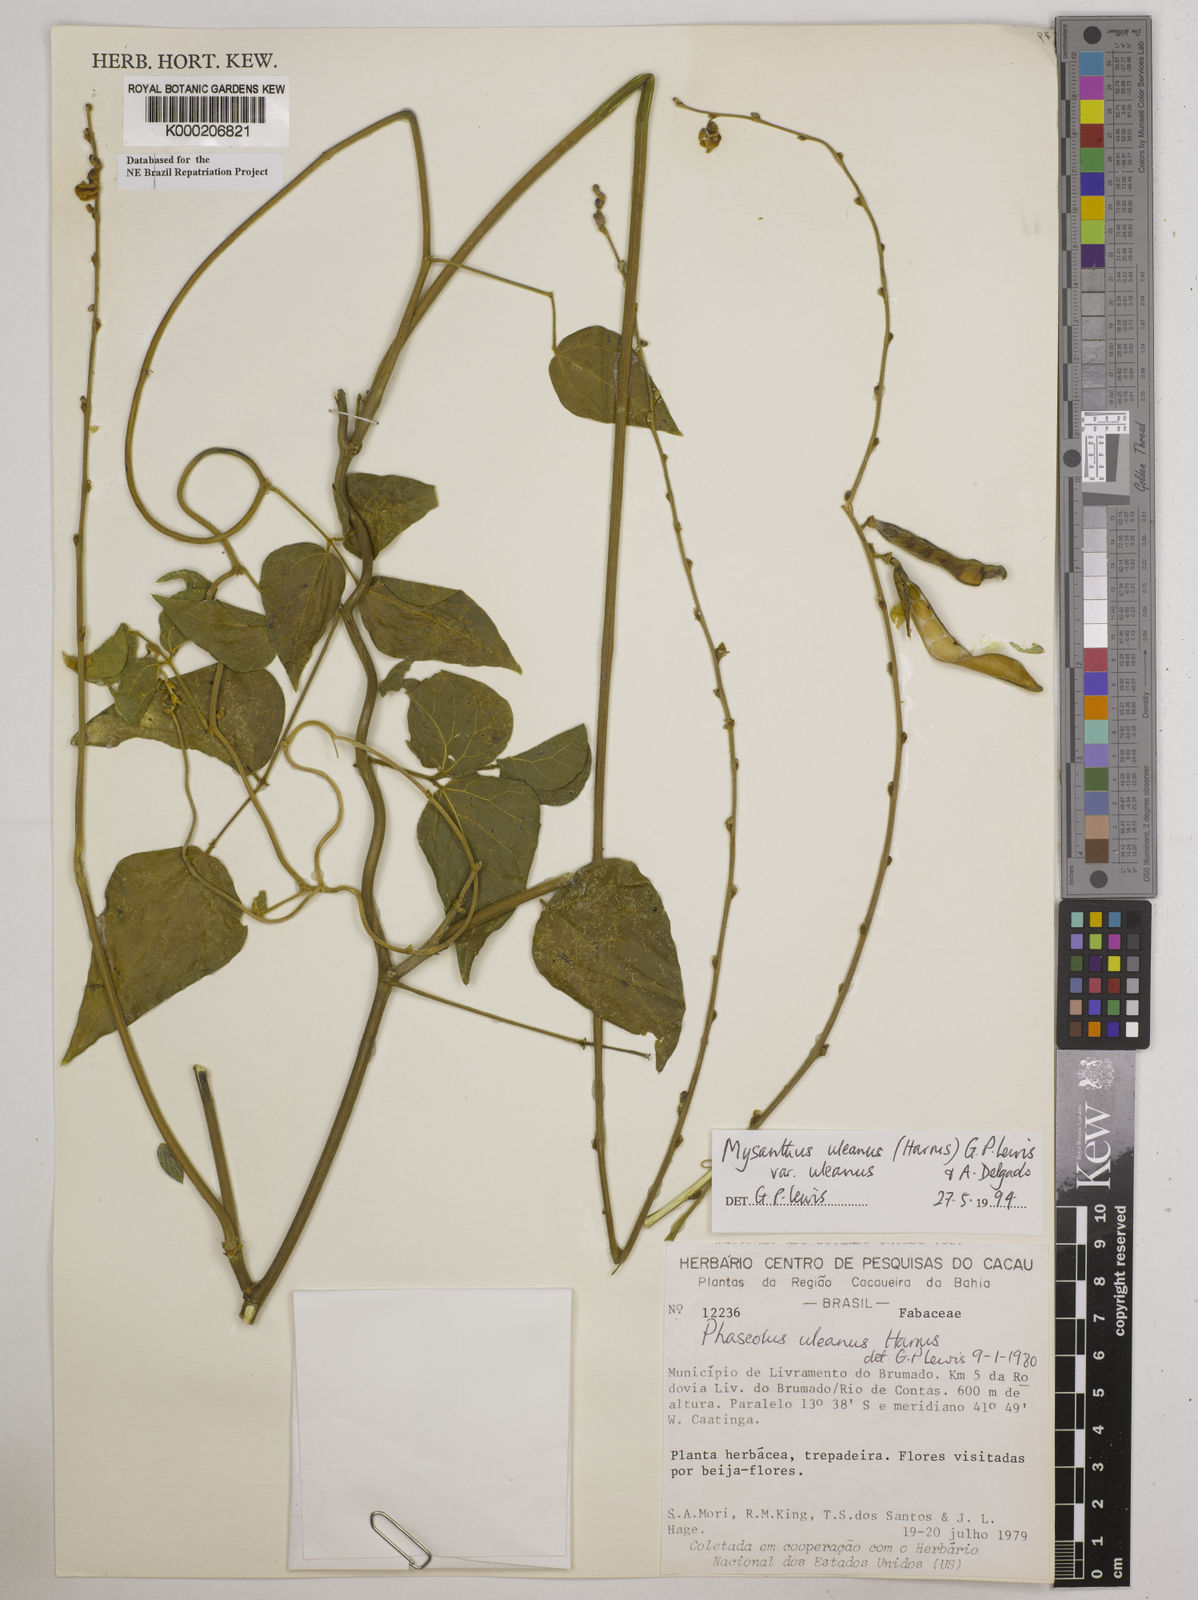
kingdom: Plantae
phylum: Tracheophyta
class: Magnoliopsida
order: Fabales
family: Fabaceae
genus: Mysanthus
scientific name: Mysanthus uleanus
